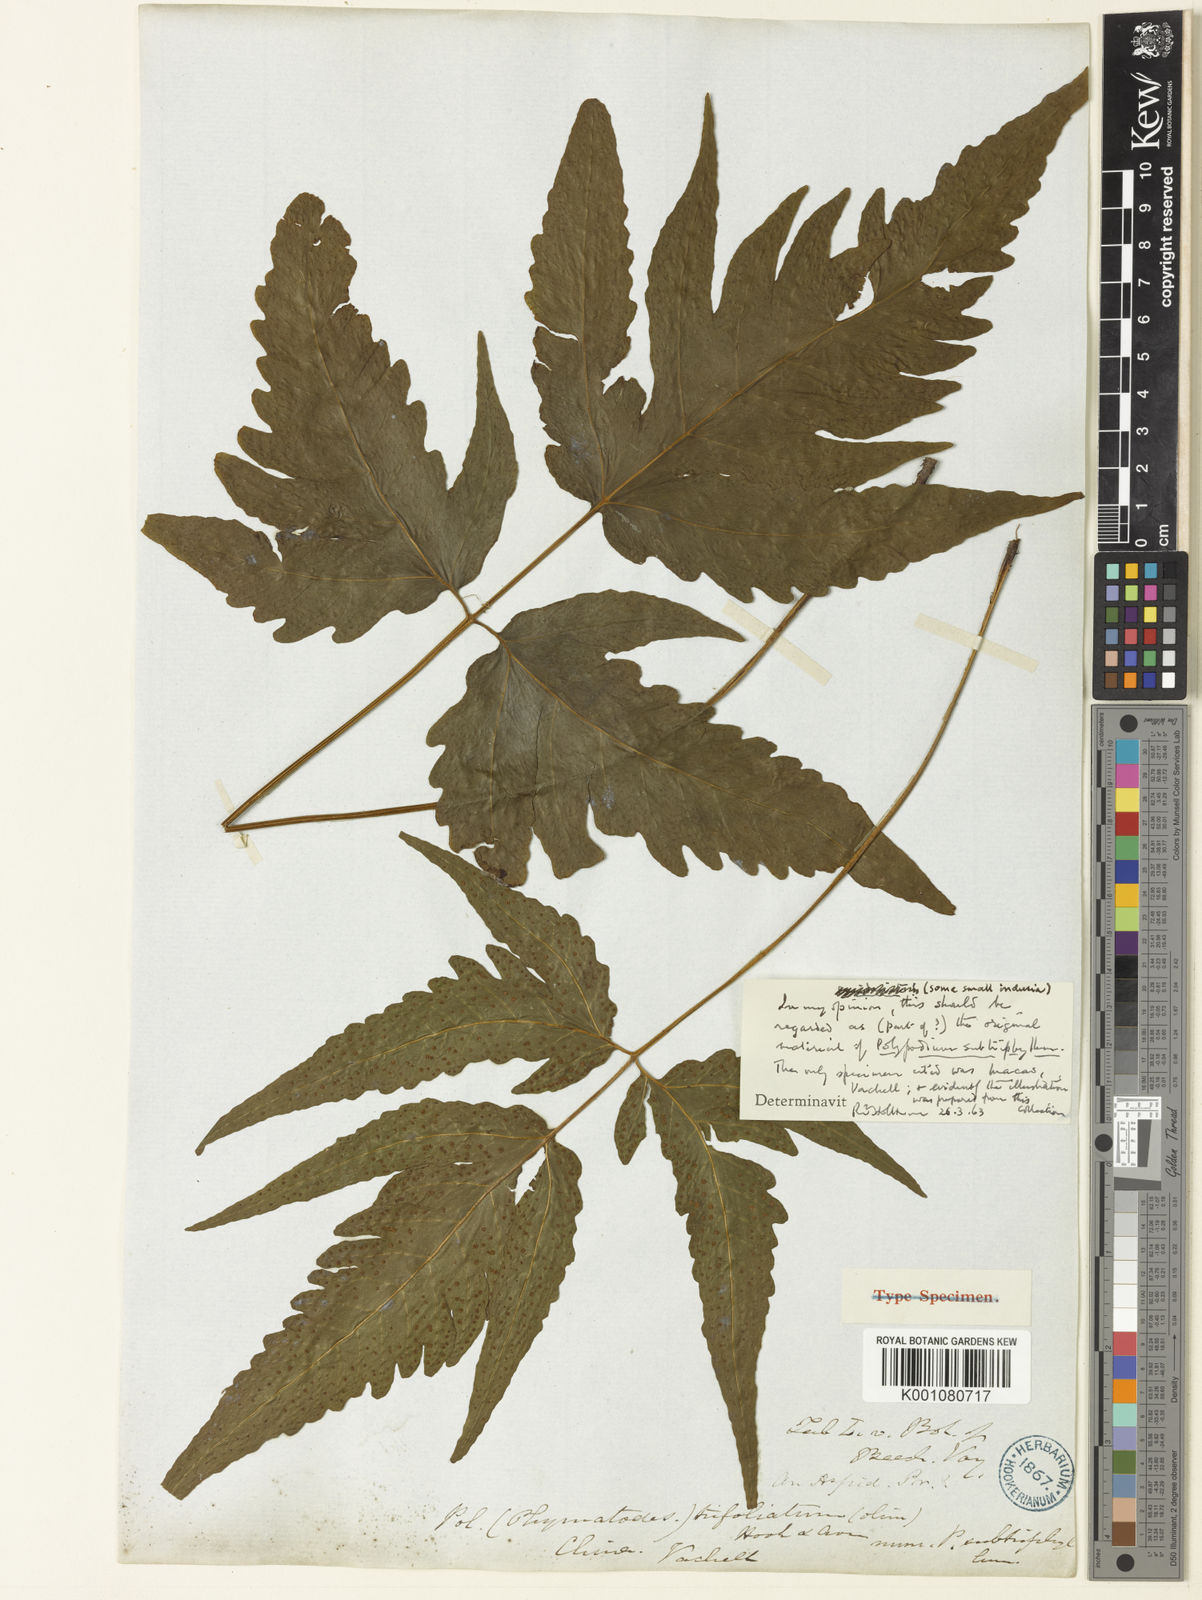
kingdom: Plantae
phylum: Tracheophyta
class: Polypodiopsida
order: Polypodiales
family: Tectariaceae
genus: Tectaria
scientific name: Tectaria subtriphylla
